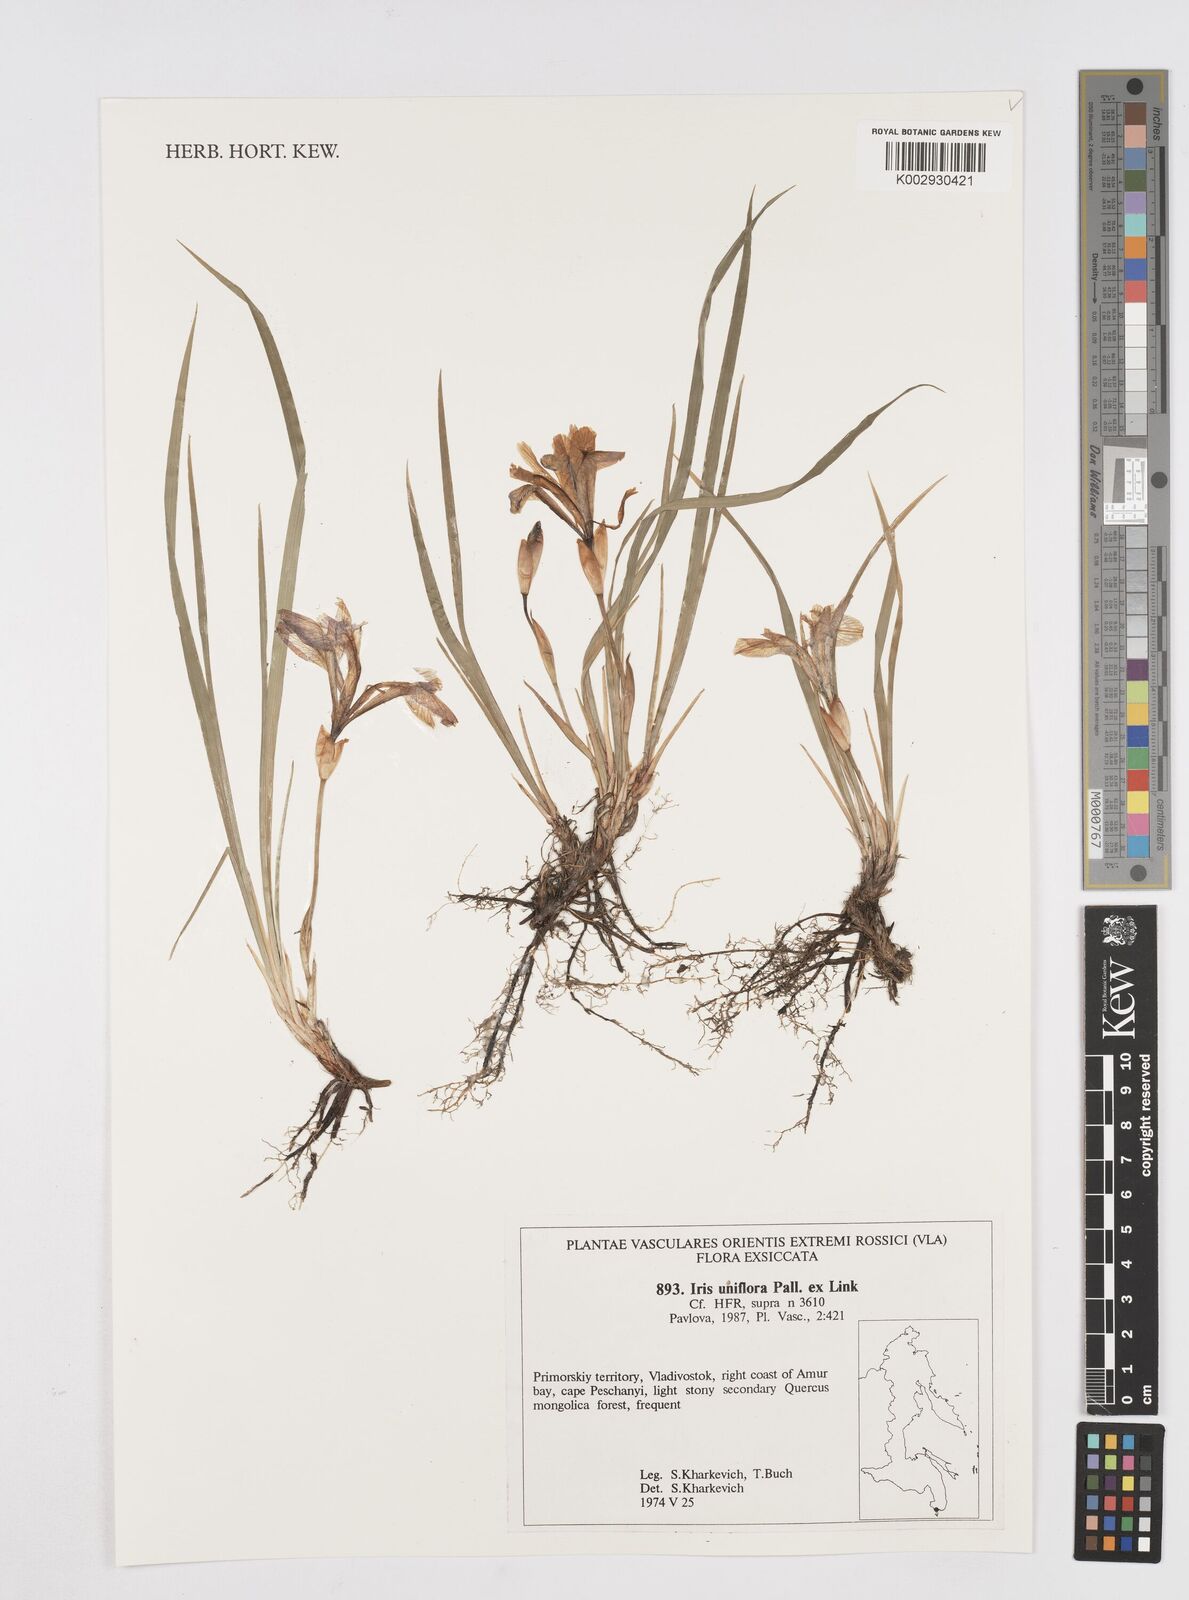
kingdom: Plantae
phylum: Tracheophyta
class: Liliopsida
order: Asparagales
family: Iridaceae
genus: Iris
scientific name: Iris uniflora
